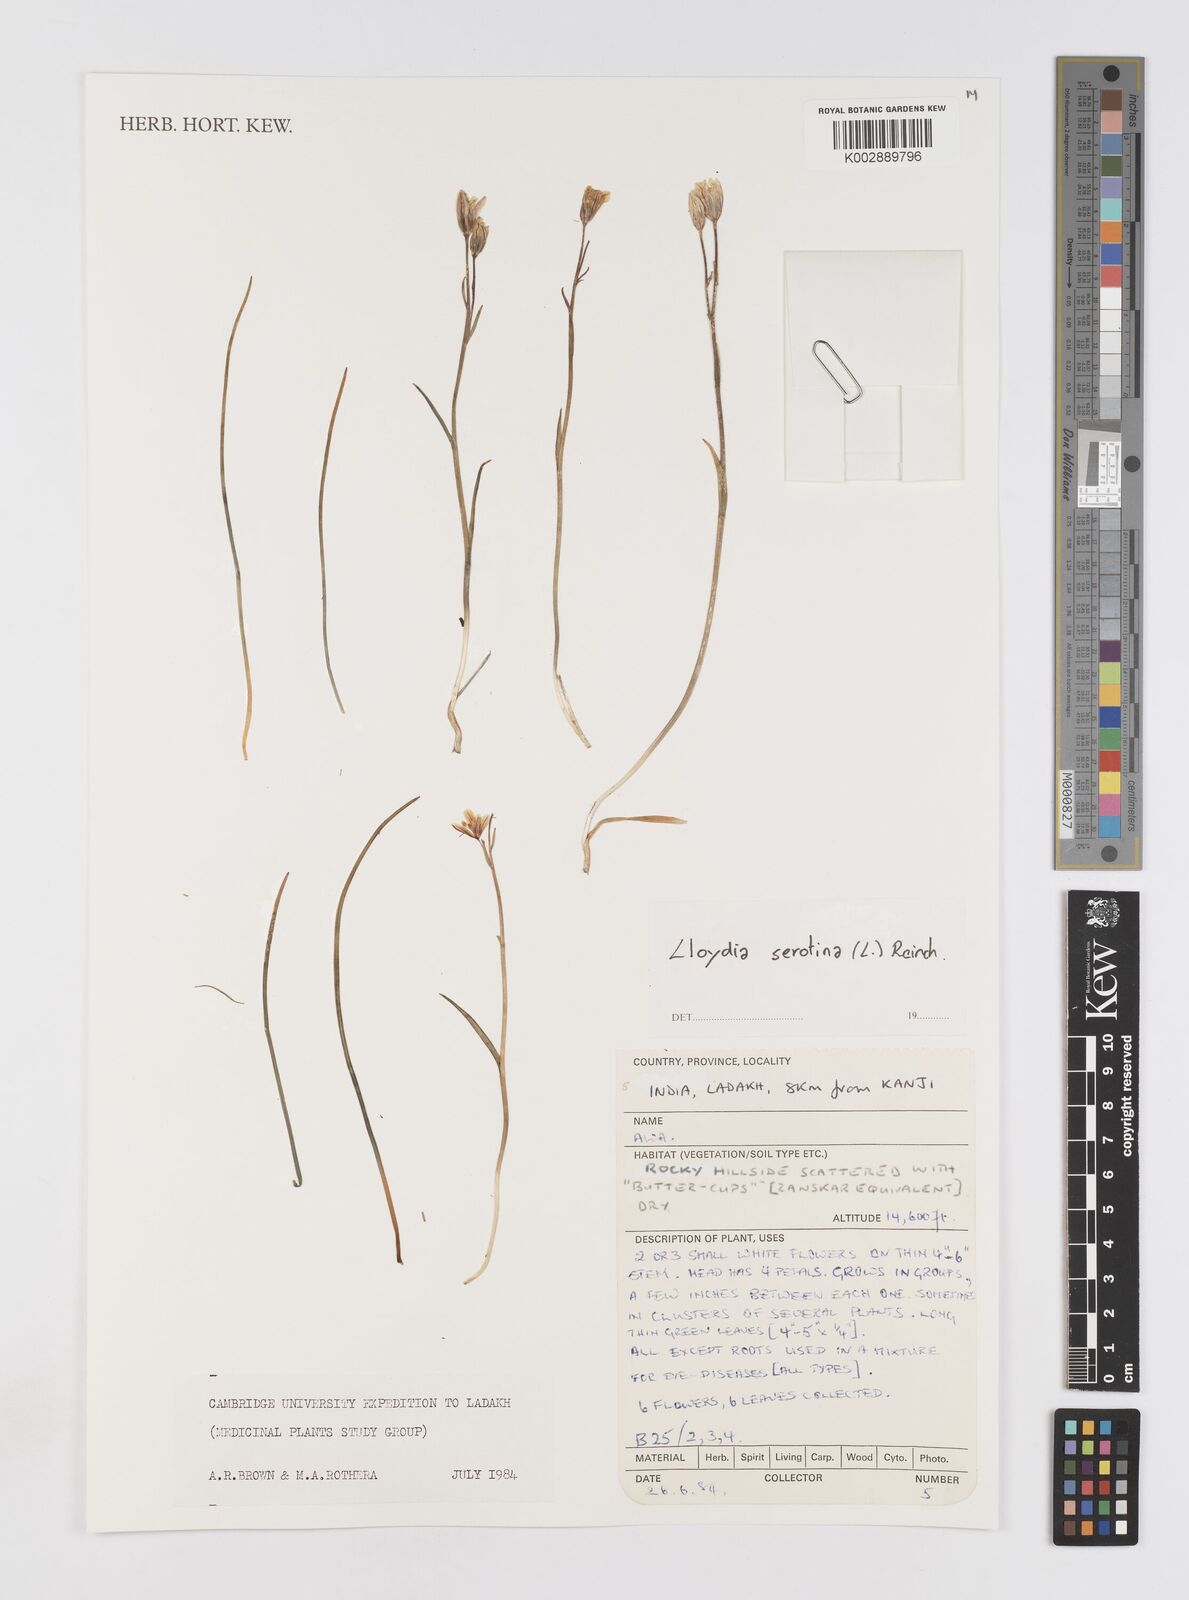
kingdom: Plantae
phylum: Tracheophyta
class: Liliopsida
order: Liliales
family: Liliaceae
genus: Gagea
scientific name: Gagea serotina
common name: Snowdon lily
